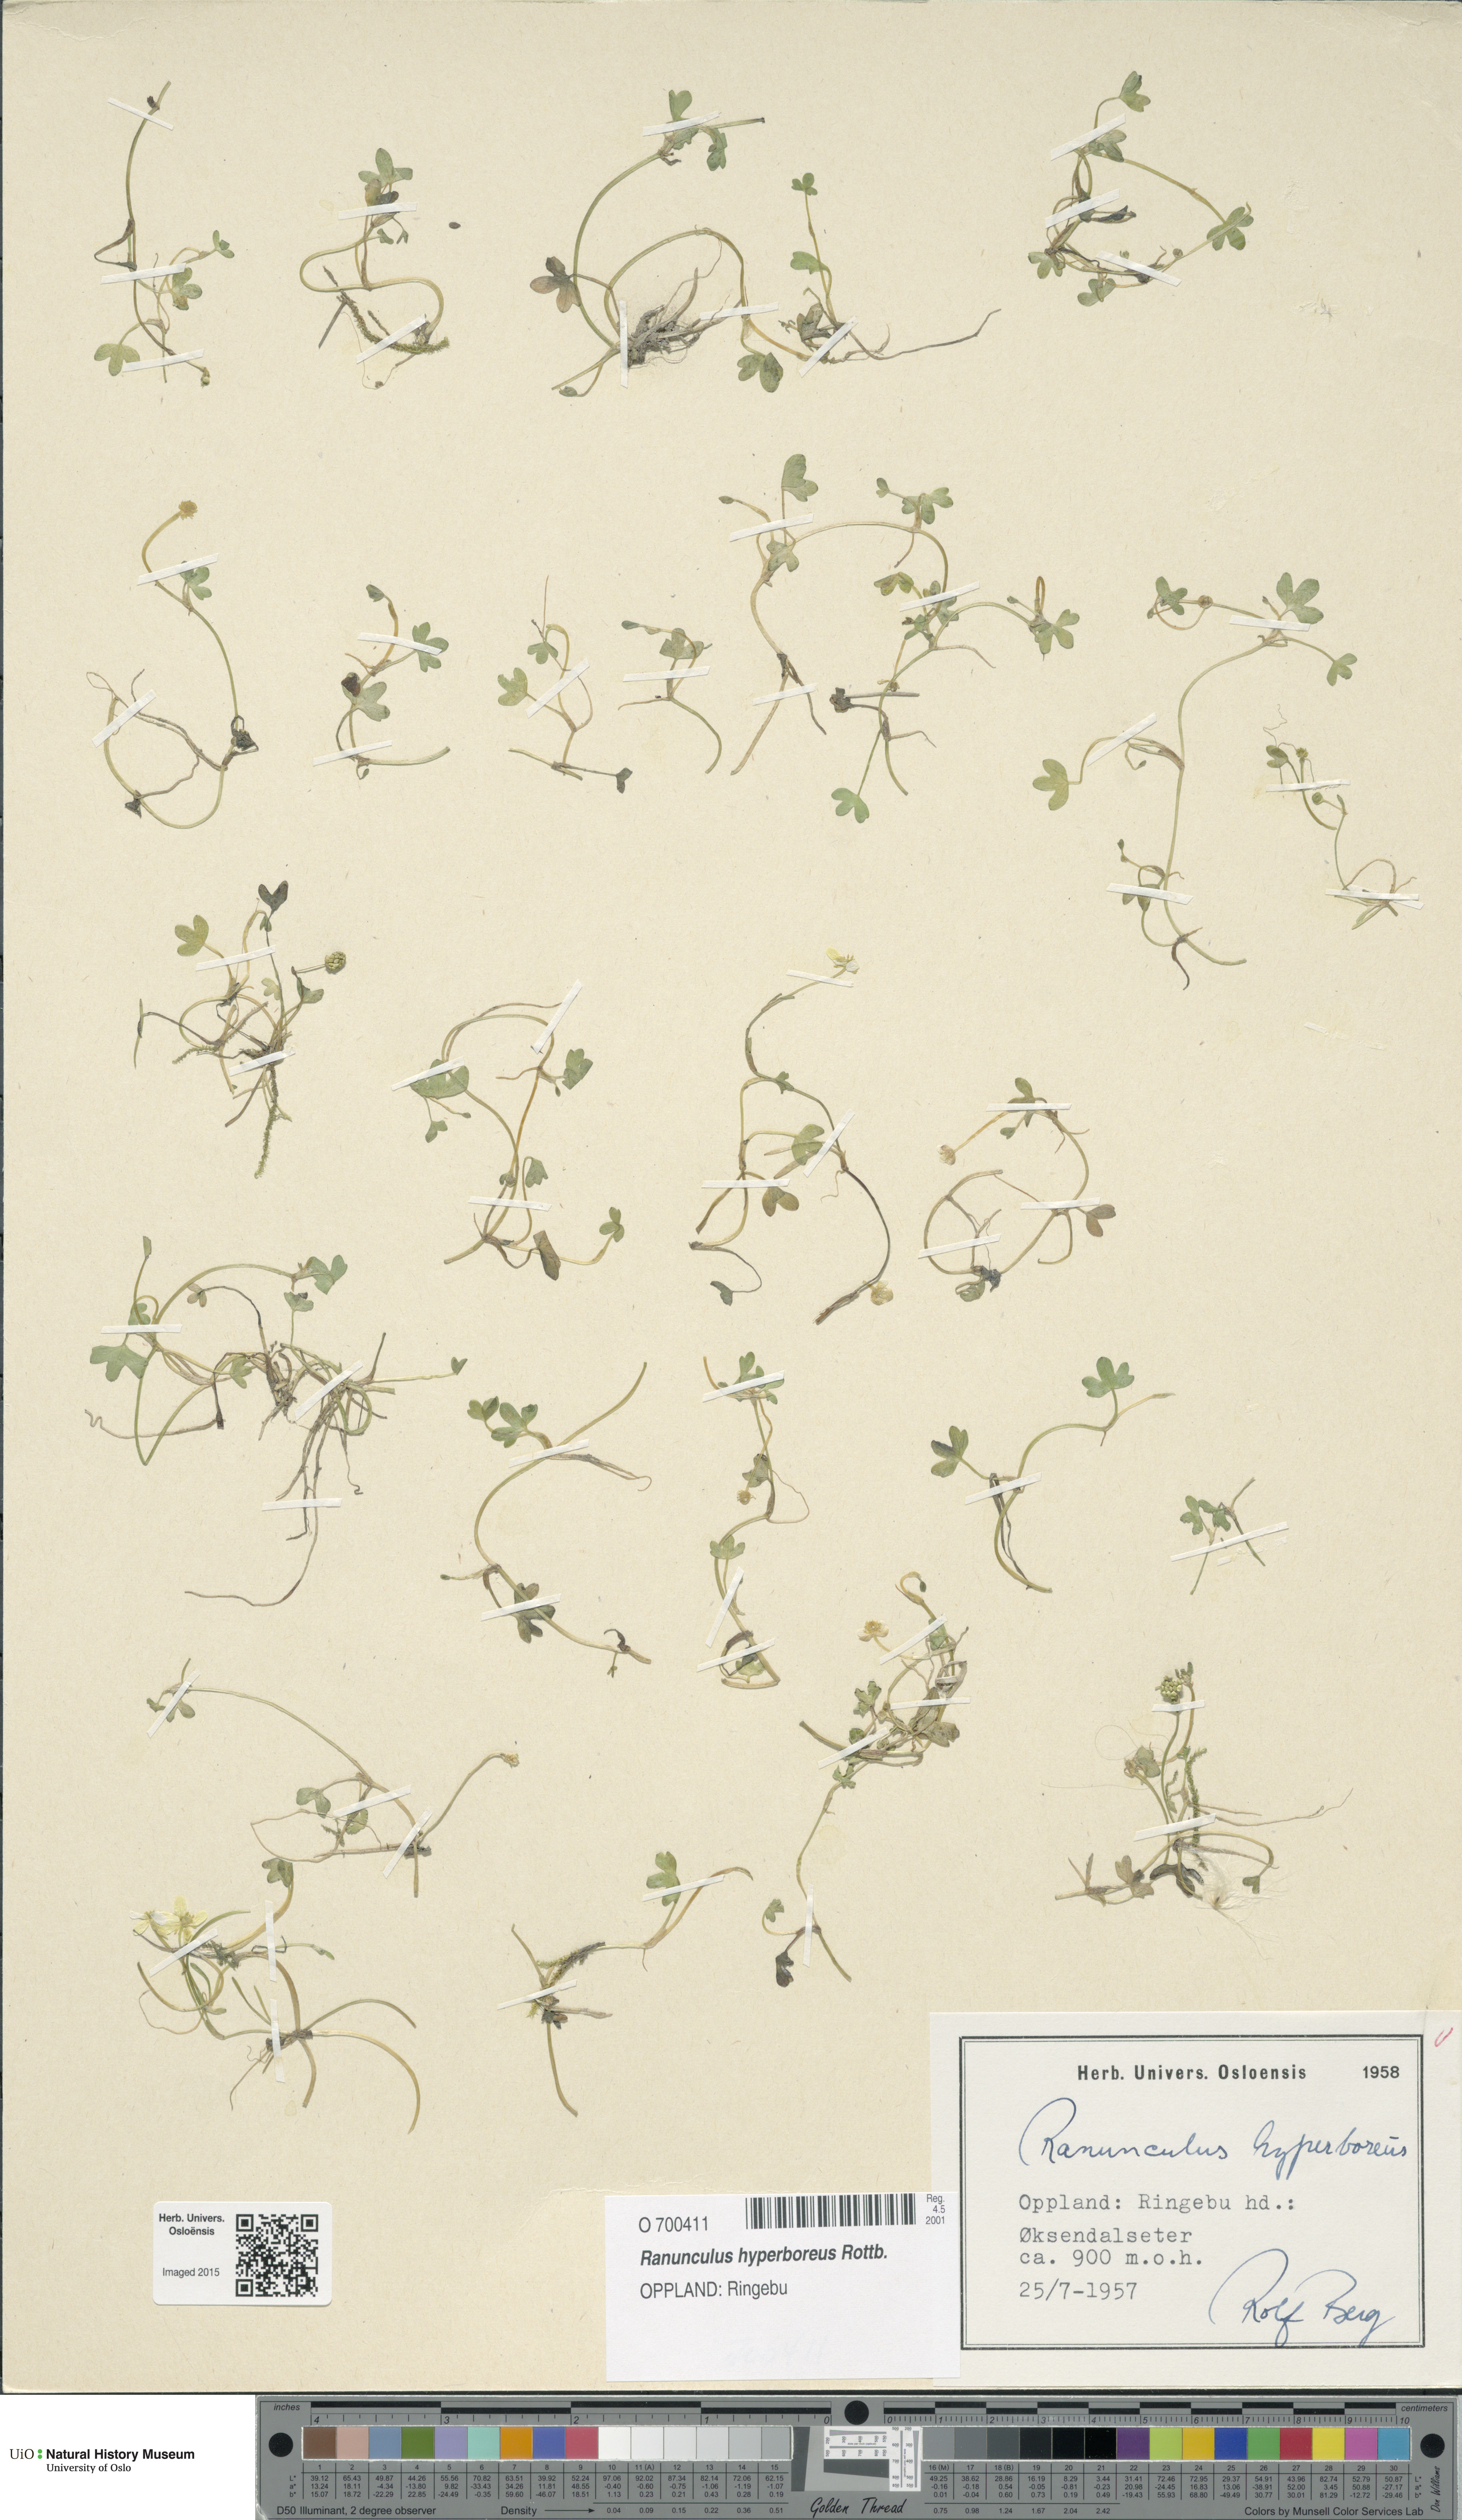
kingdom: Plantae
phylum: Tracheophyta
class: Magnoliopsida
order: Ranunculales
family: Ranunculaceae
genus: Ranunculus
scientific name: Ranunculus hyperboreus
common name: Arctic buttercup
